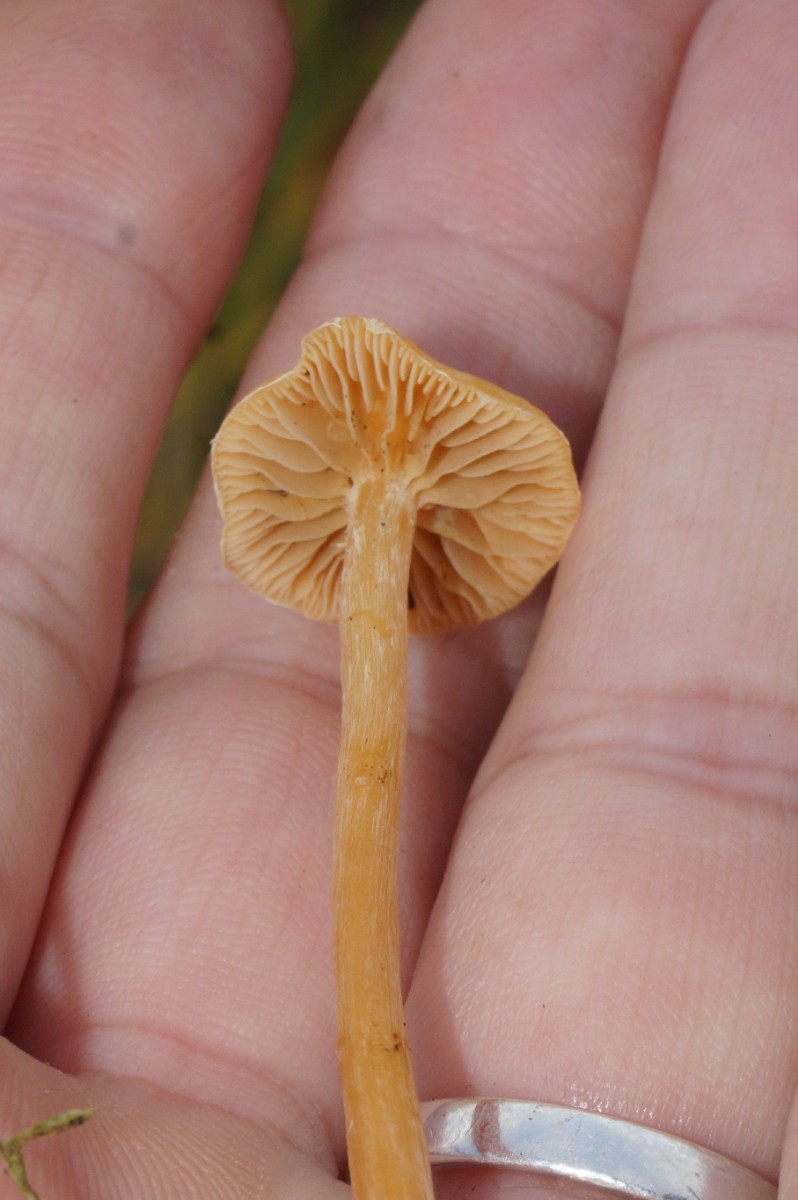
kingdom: Fungi
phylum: Basidiomycota
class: Agaricomycetes
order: Agaricales
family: Hymenogastraceae
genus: Galerina
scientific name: Galerina
